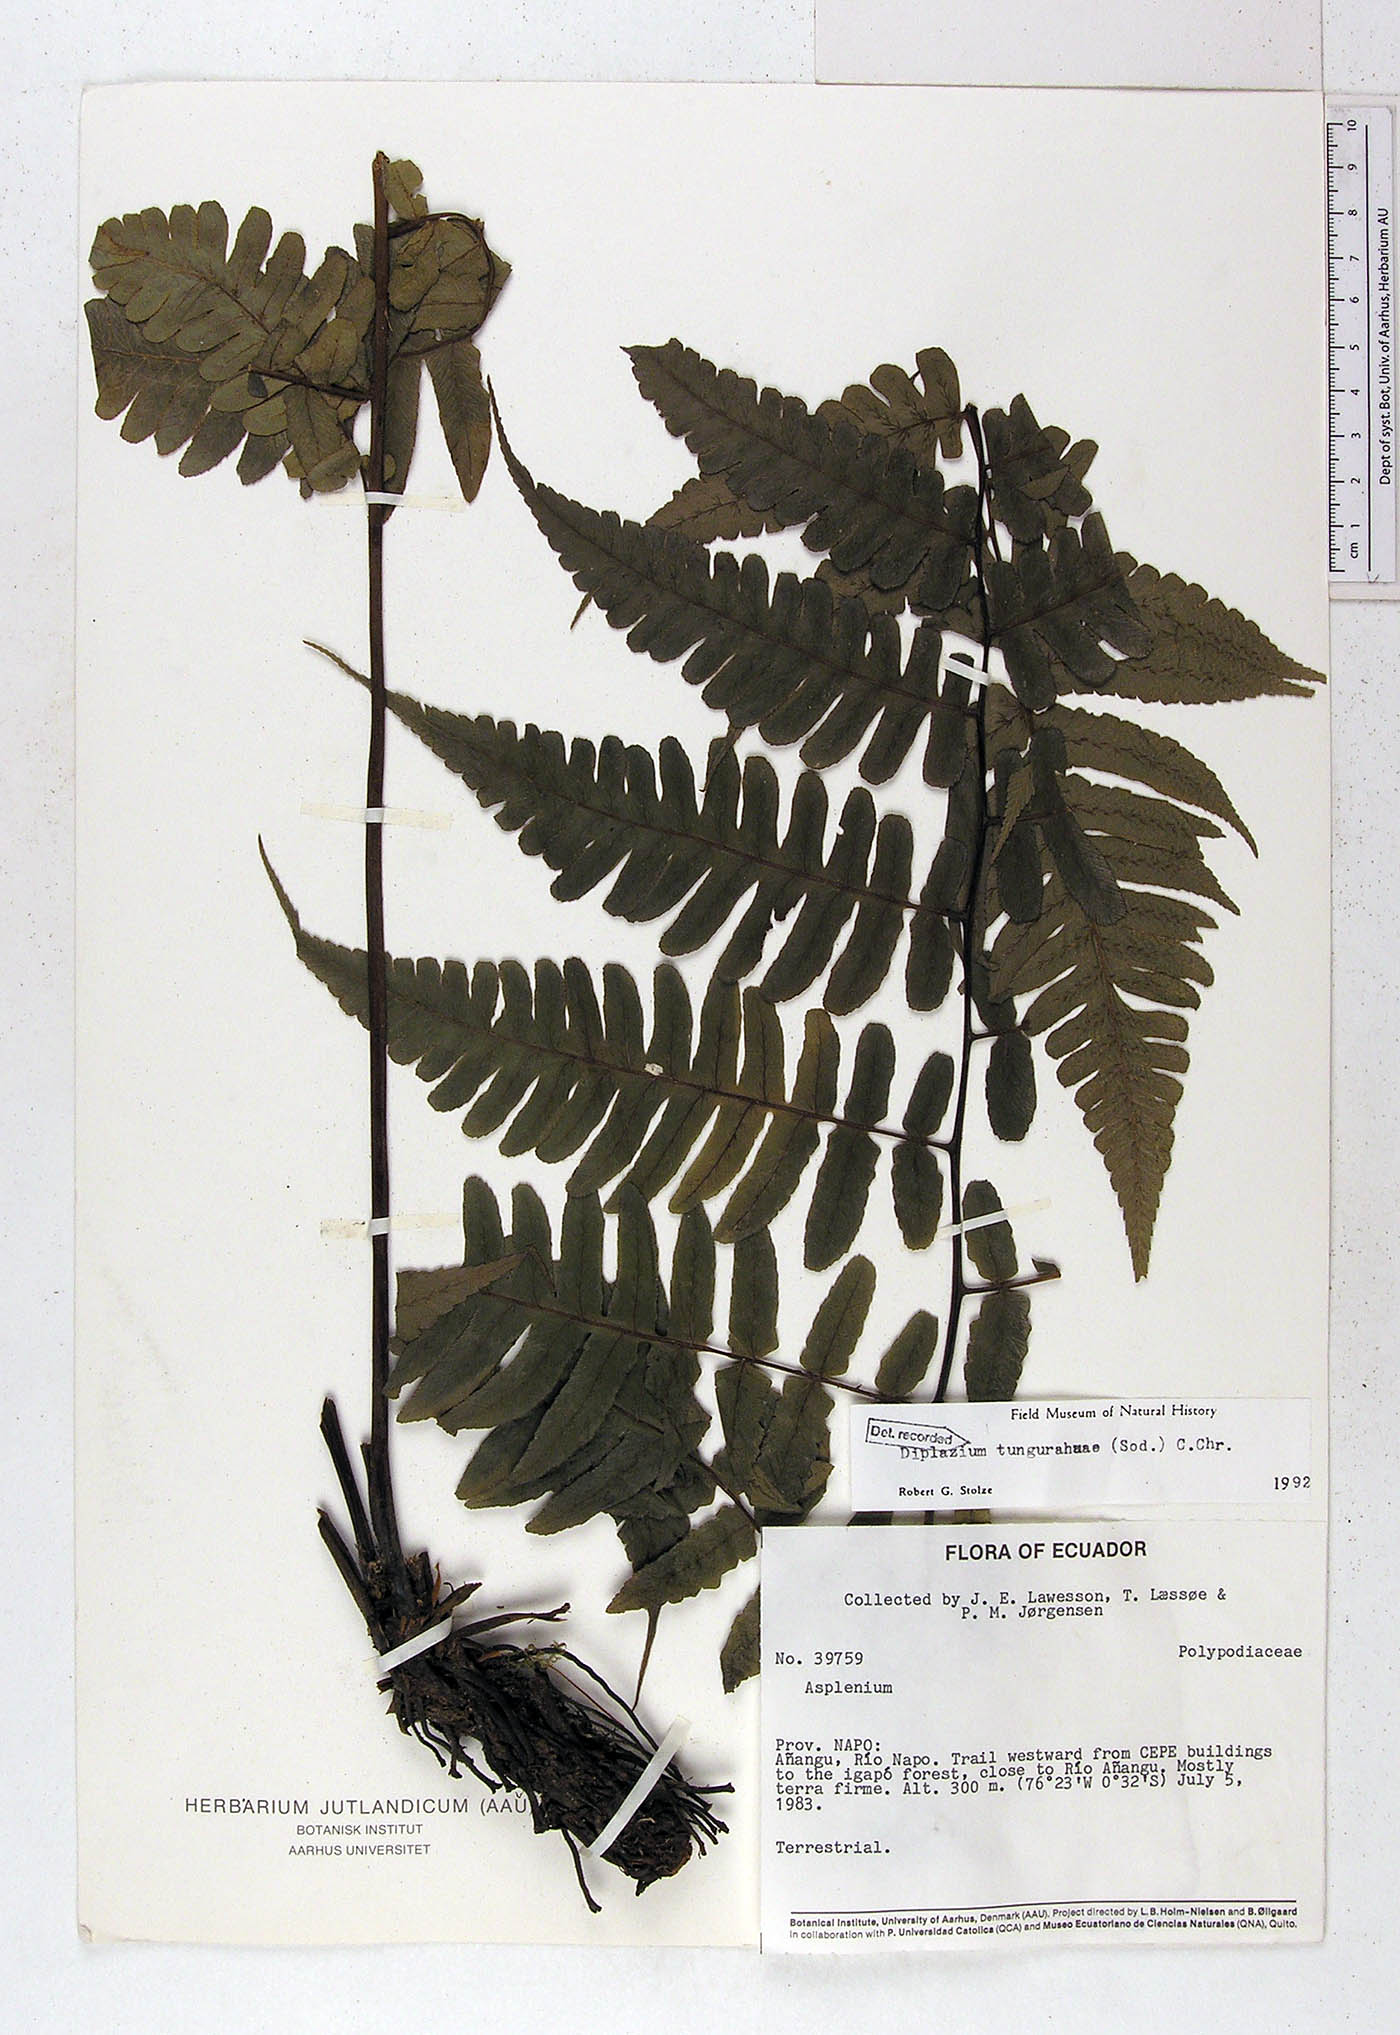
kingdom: Plantae
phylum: Tracheophyta
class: Polypodiopsida
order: Polypodiales
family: Athyriaceae
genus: Diplazium
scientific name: Diplazium tungurahuae
